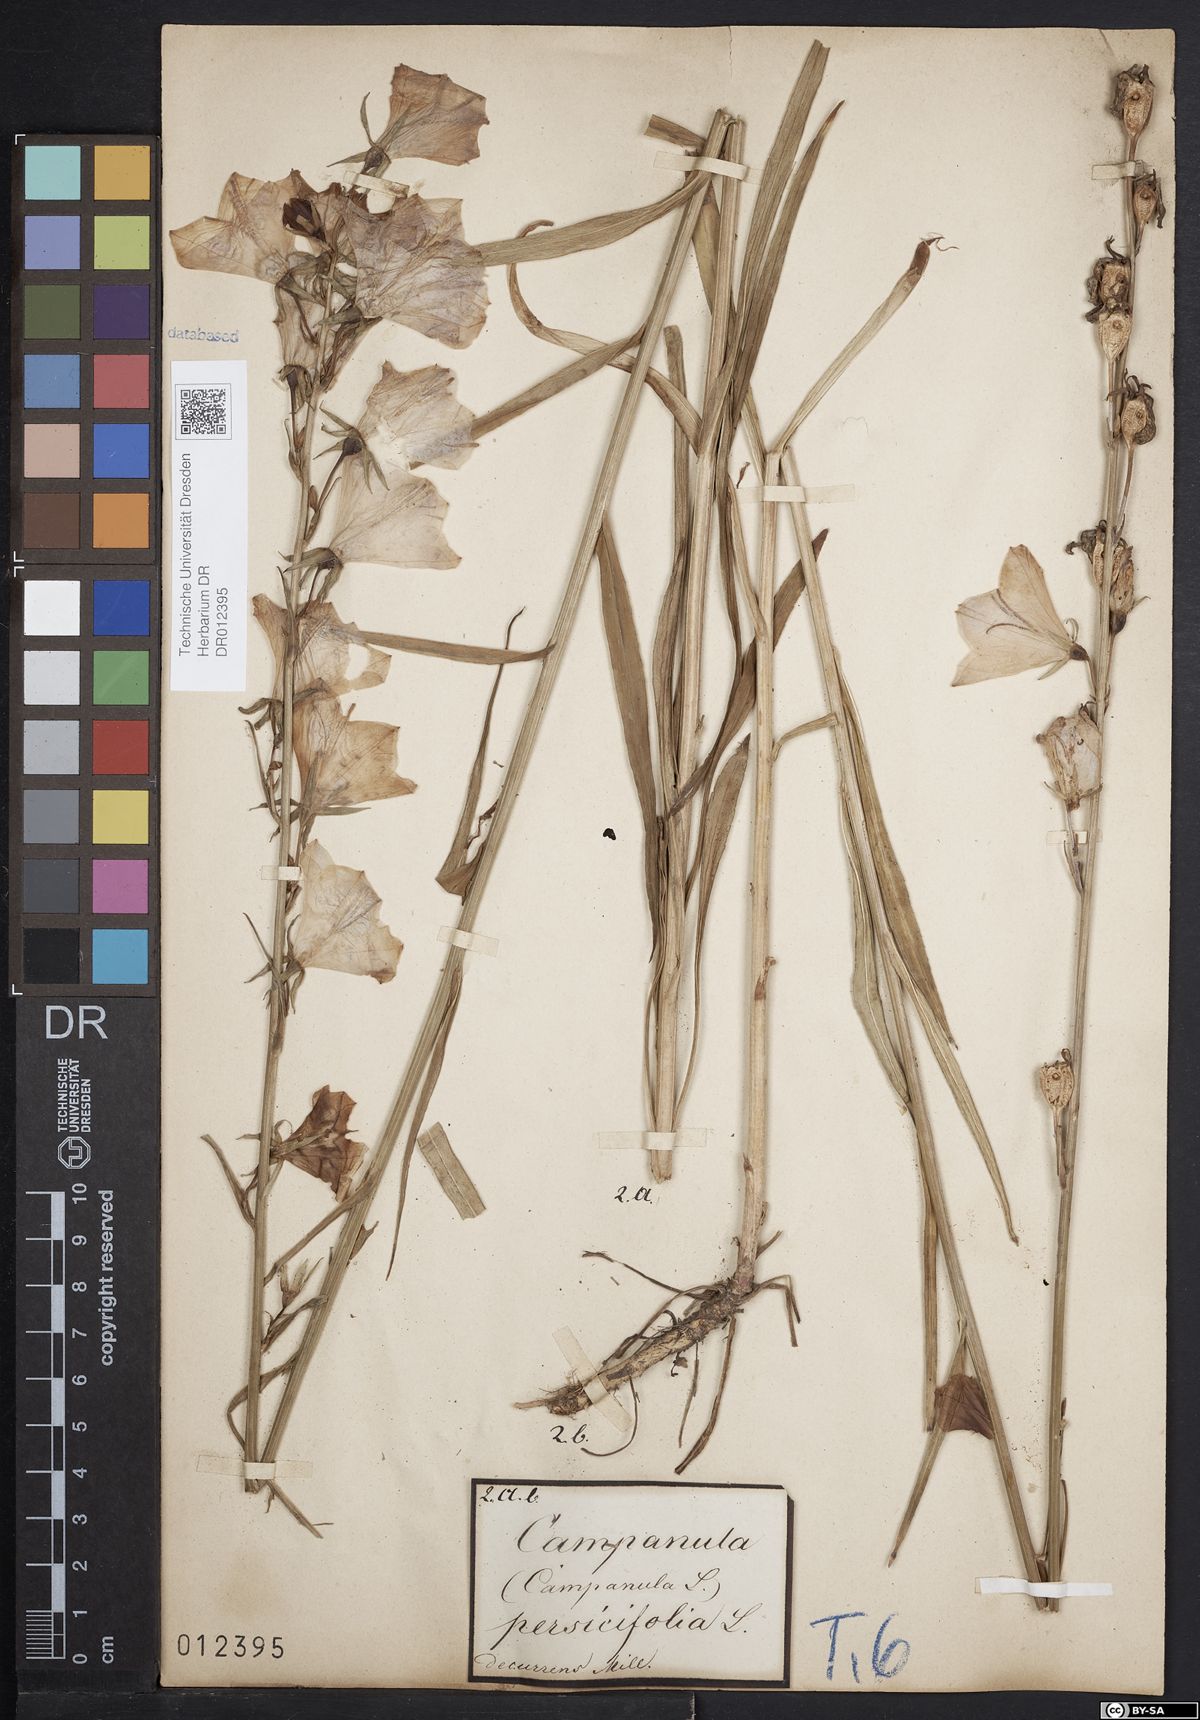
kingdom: Plantae
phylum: Tracheophyta
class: Magnoliopsida
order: Asterales
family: Campanulaceae
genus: Campanula
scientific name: Campanula persicifolia
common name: Peach-leaved bellflower
